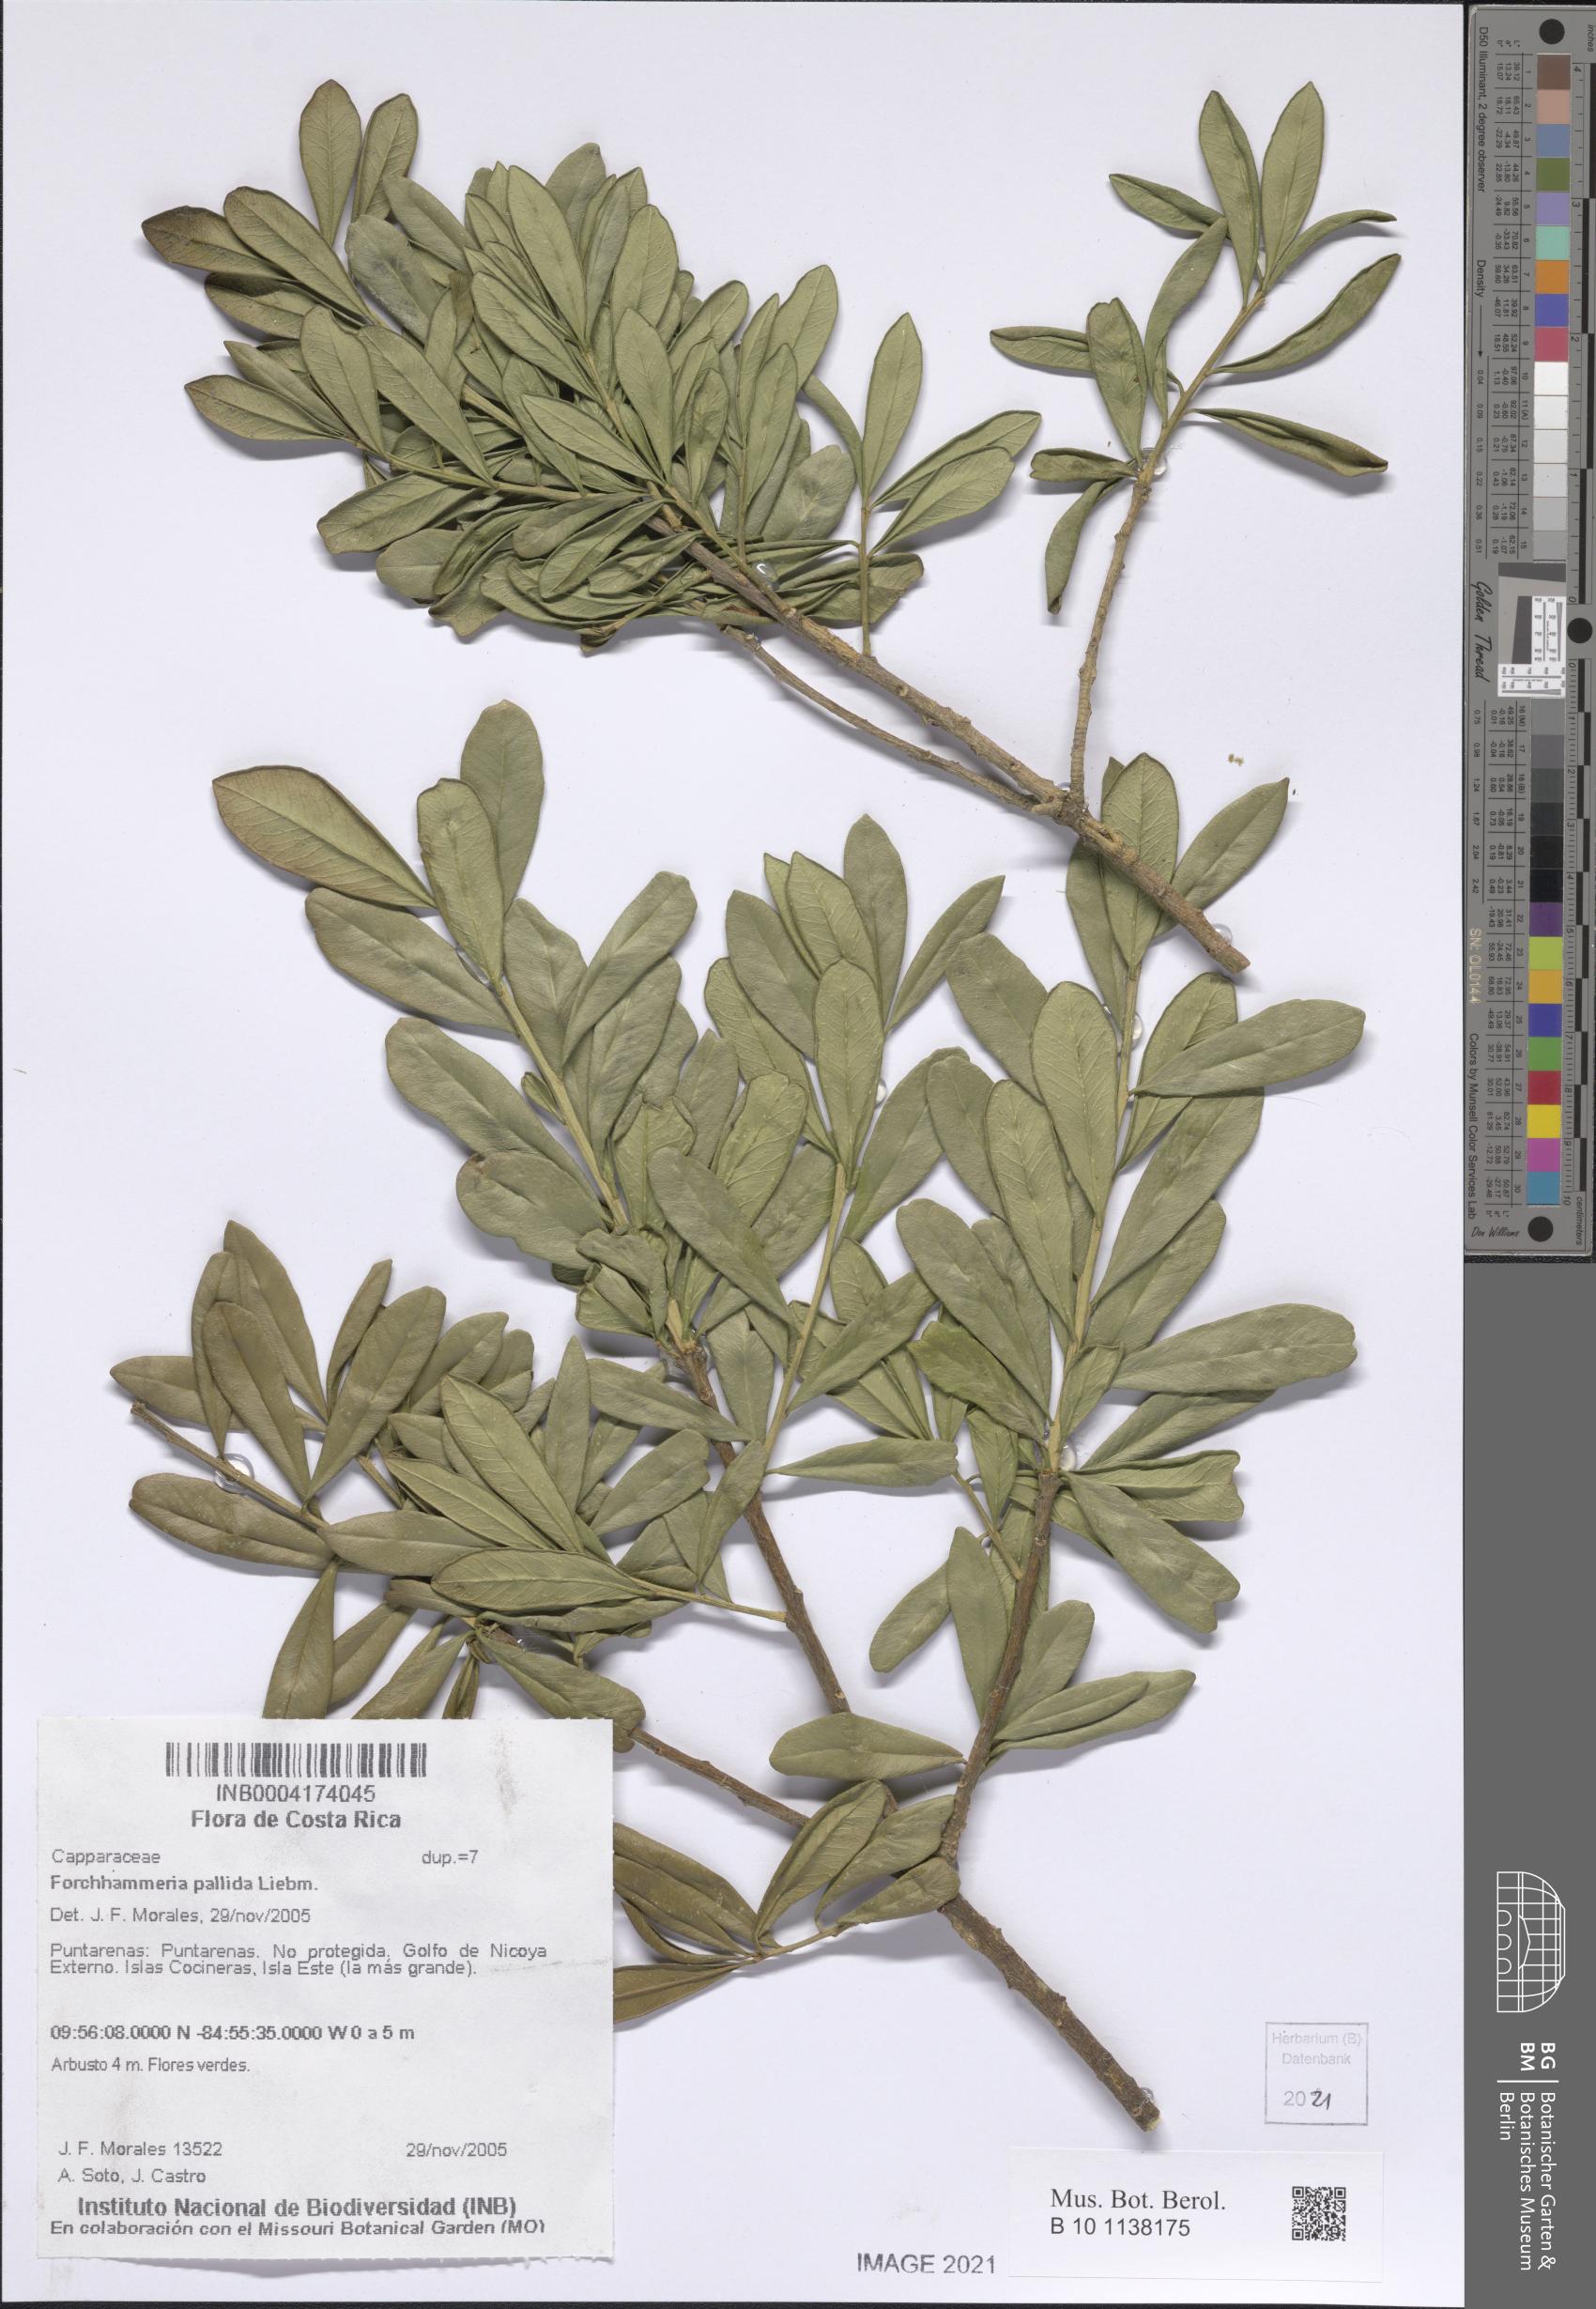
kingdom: Plantae
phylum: Tracheophyta
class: Magnoliopsida
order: Brassicales
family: Stixaceae
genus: Forchhammeria
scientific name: Forchhammeria pallida
